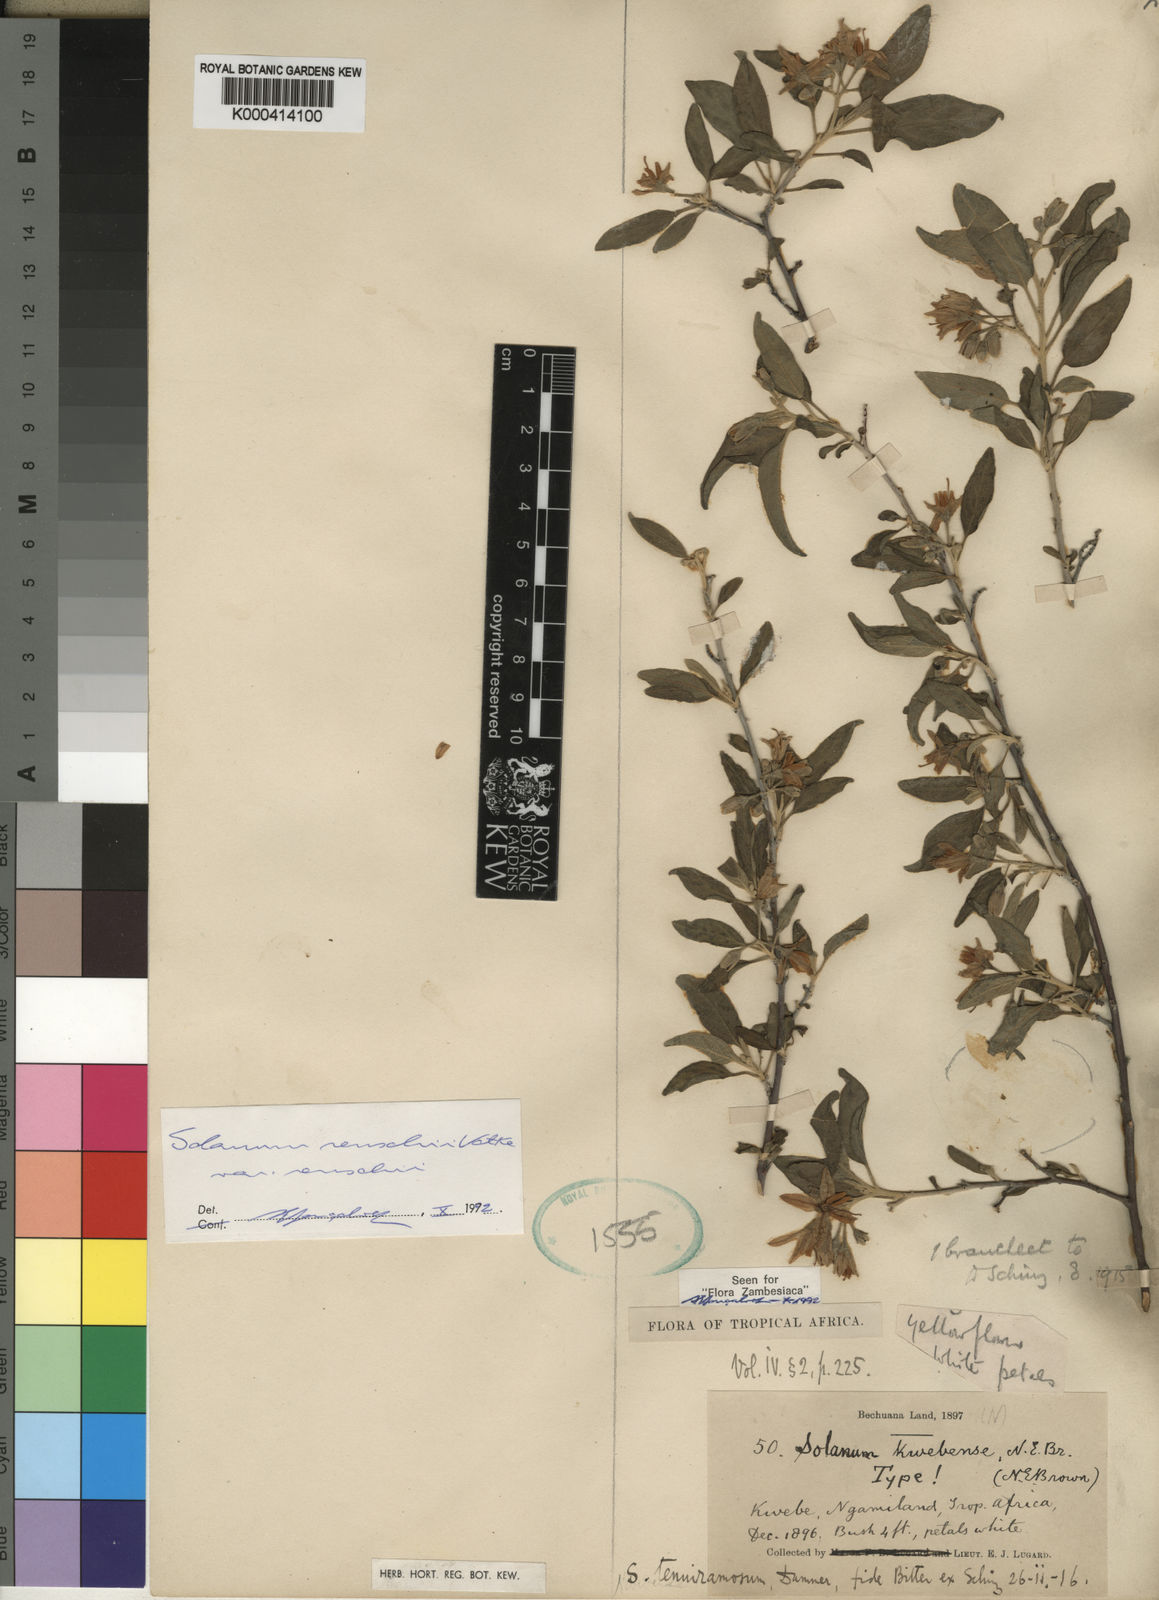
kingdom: Plantae
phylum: Tracheophyta
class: Magnoliopsida
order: Solanales
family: Solanaceae
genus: Solanum
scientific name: Solanum
